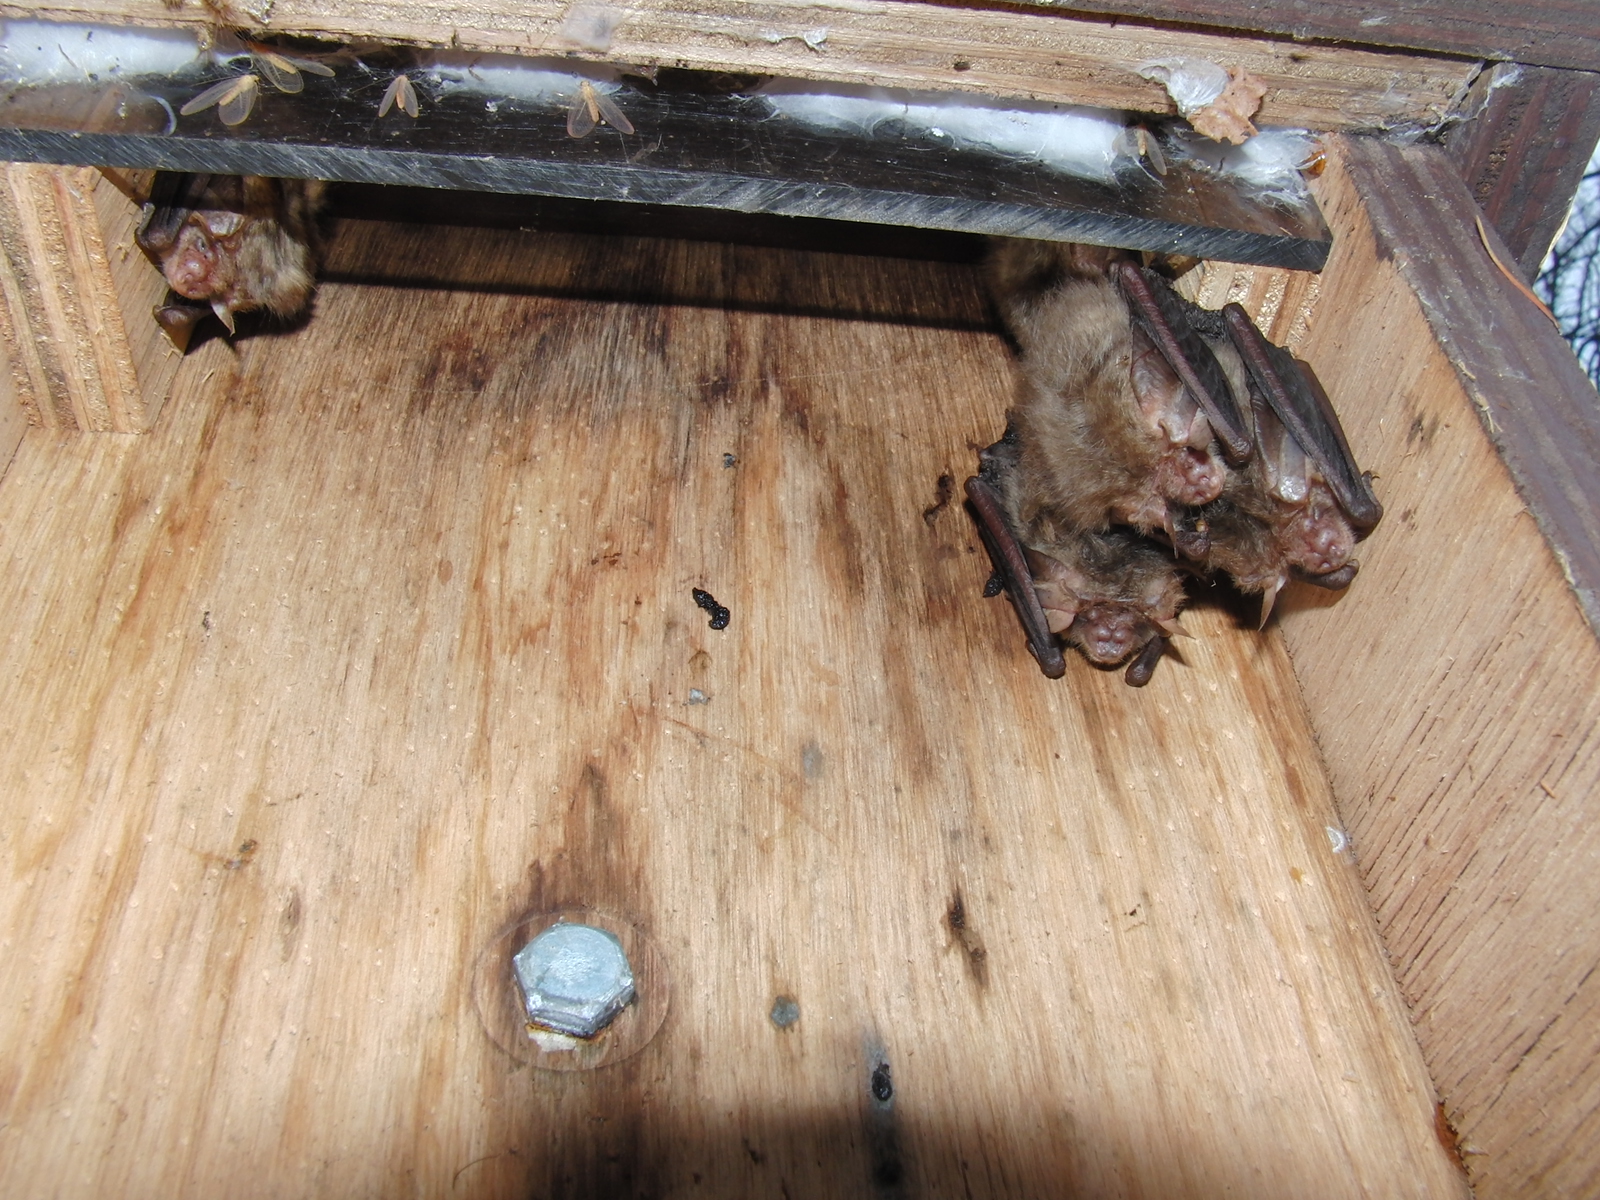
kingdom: Animalia
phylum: Chordata
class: Mammalia
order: Chiroptera
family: Vespertilionidae
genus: Plecotus
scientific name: Plecotus auritus
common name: Brown long-eared bat
